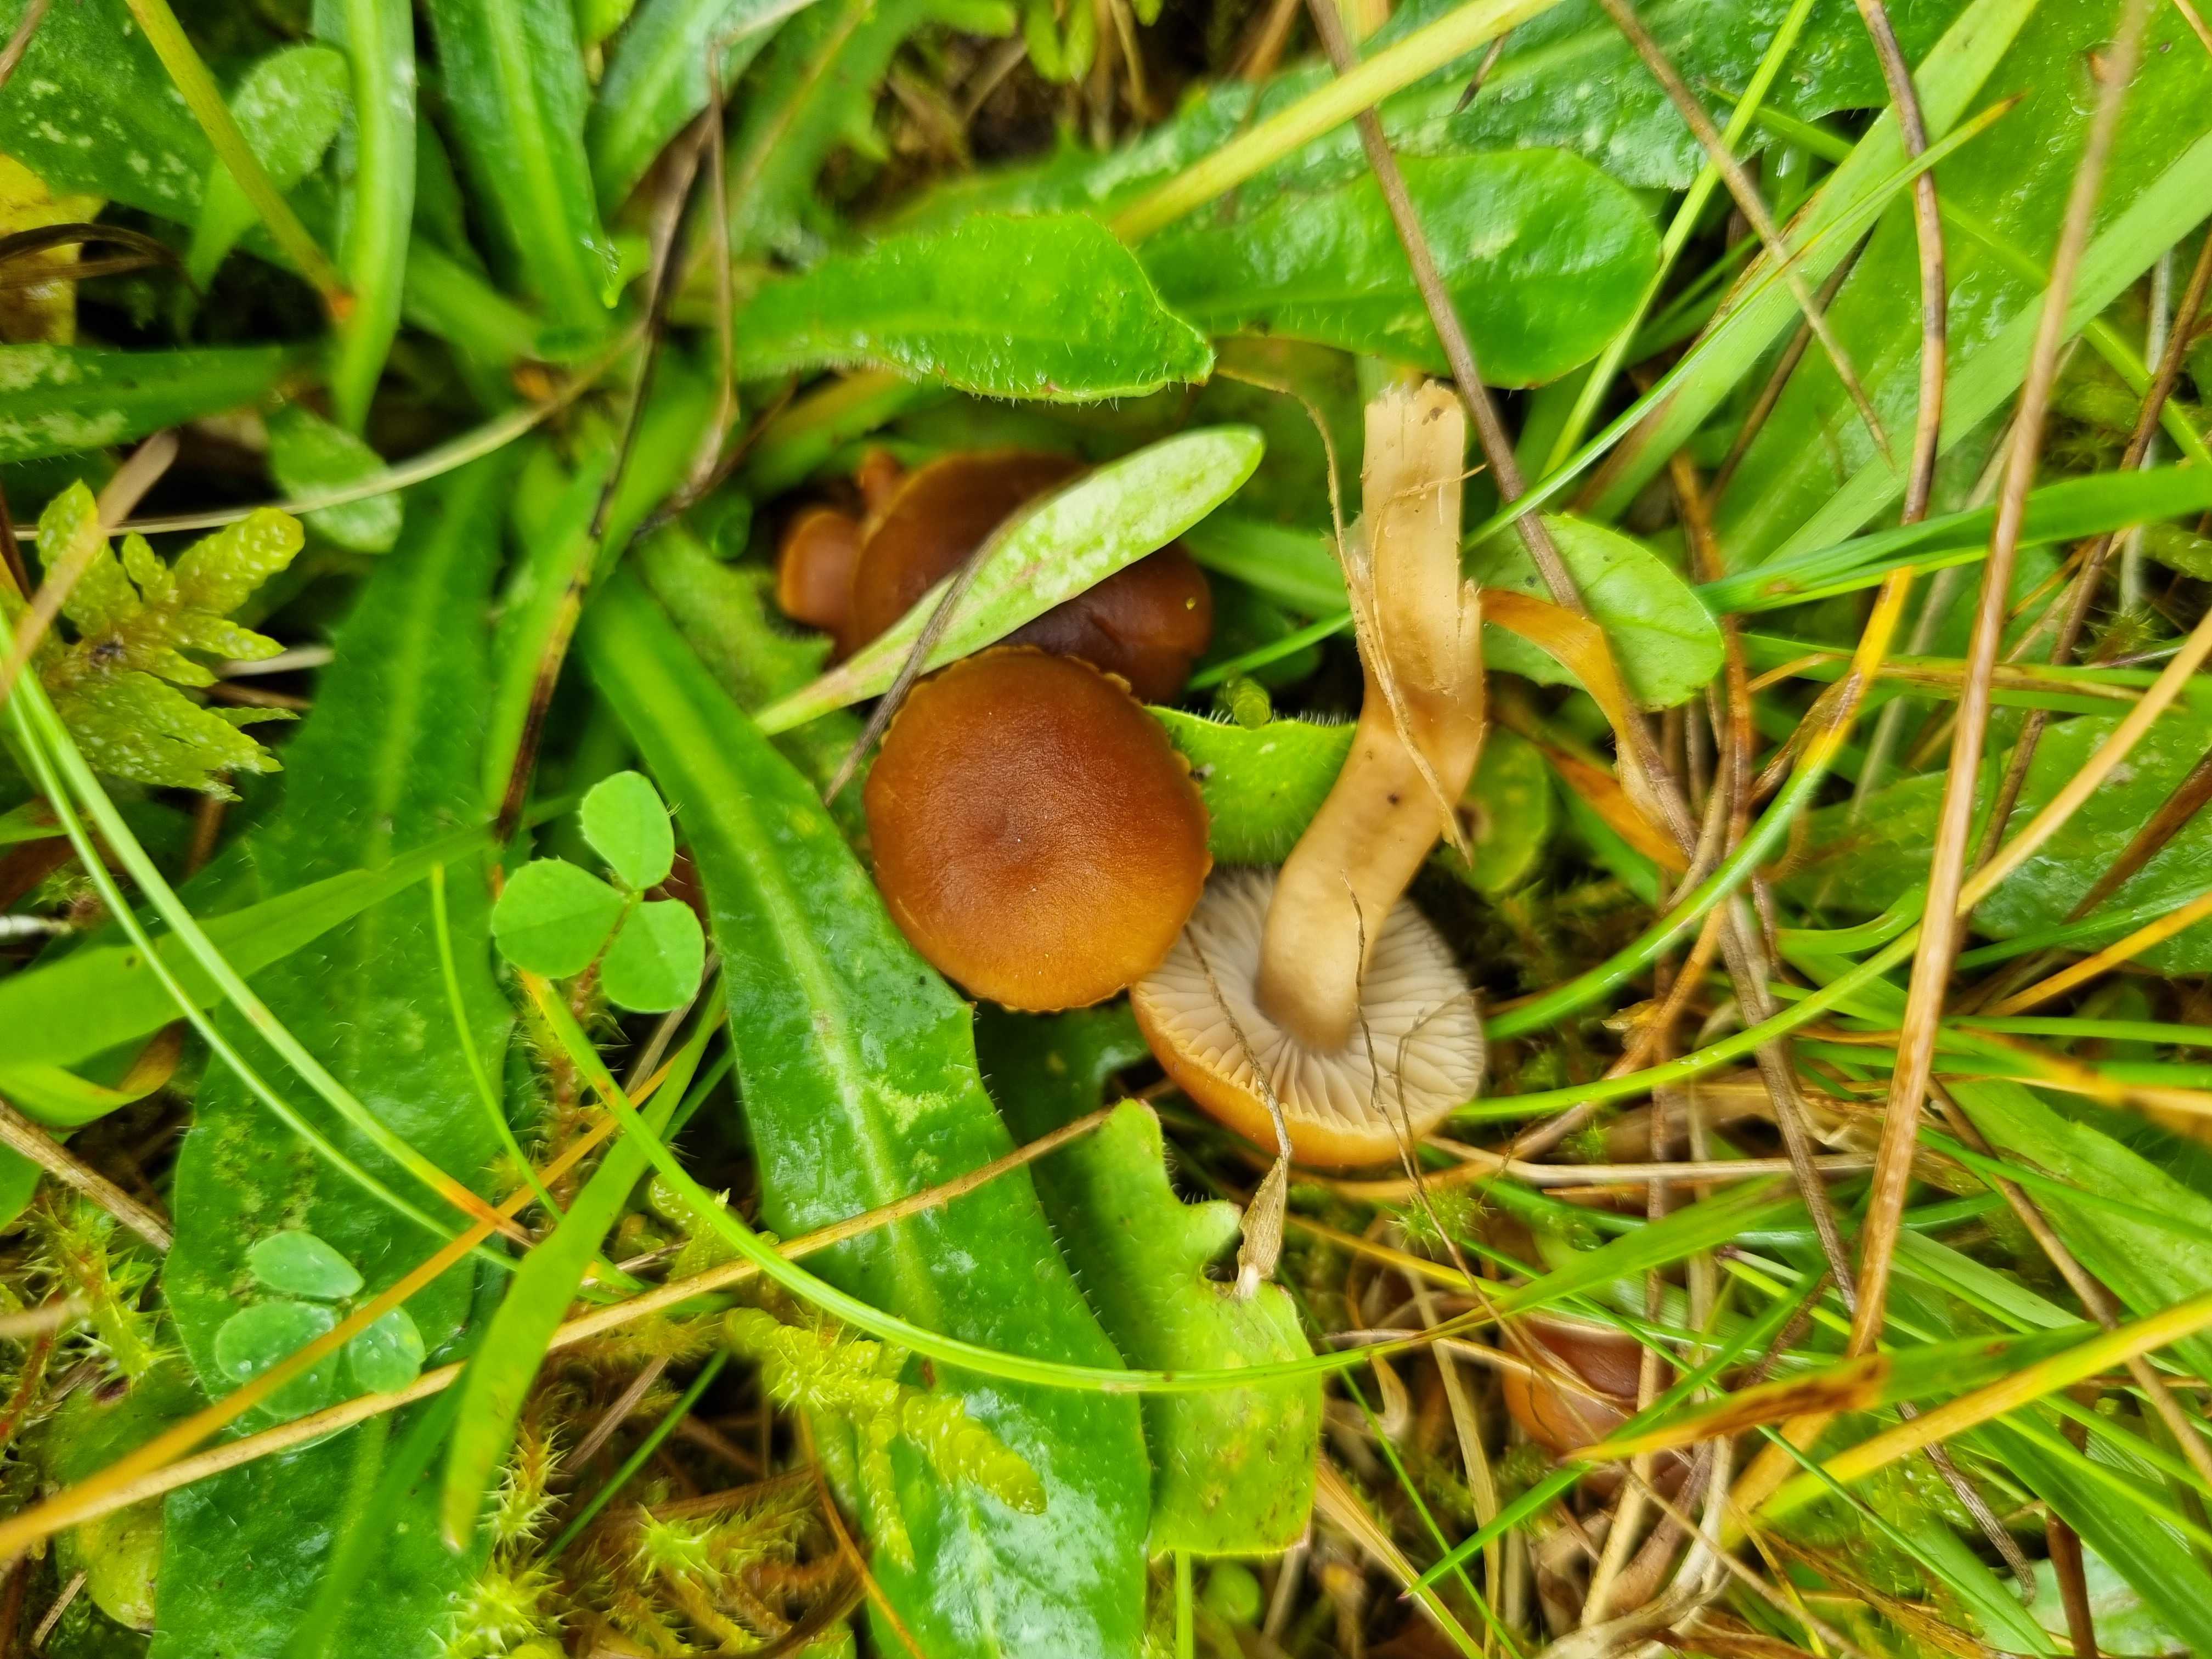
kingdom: Fungi
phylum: Basidiomycota
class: Agaricomycetes
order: Agaricales
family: Clavariaceae
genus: Camarophyllopsis
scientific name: Camarophyllopsis schulzeri
